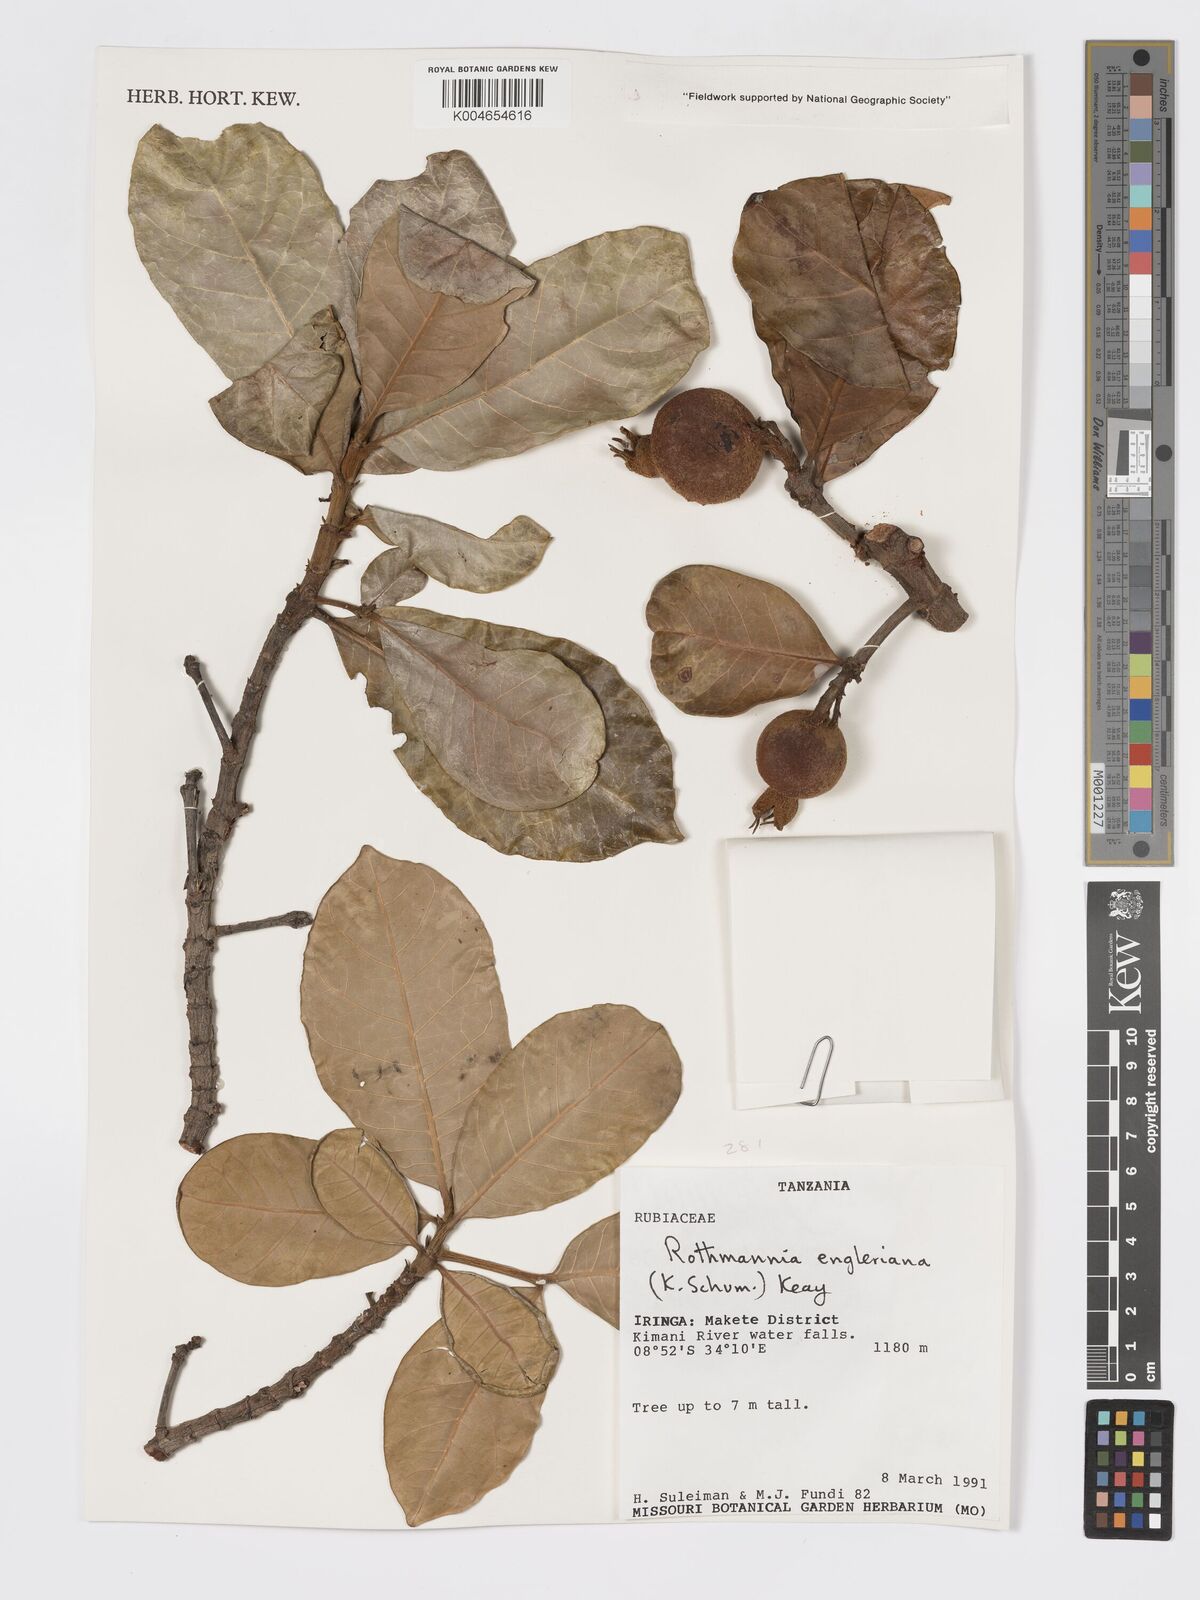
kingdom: Plantae
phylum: Tracheophyta
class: Magnoliopsida
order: Gentianales
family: Rubiaceae
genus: Rothmannia
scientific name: Rothmannia engleriana
